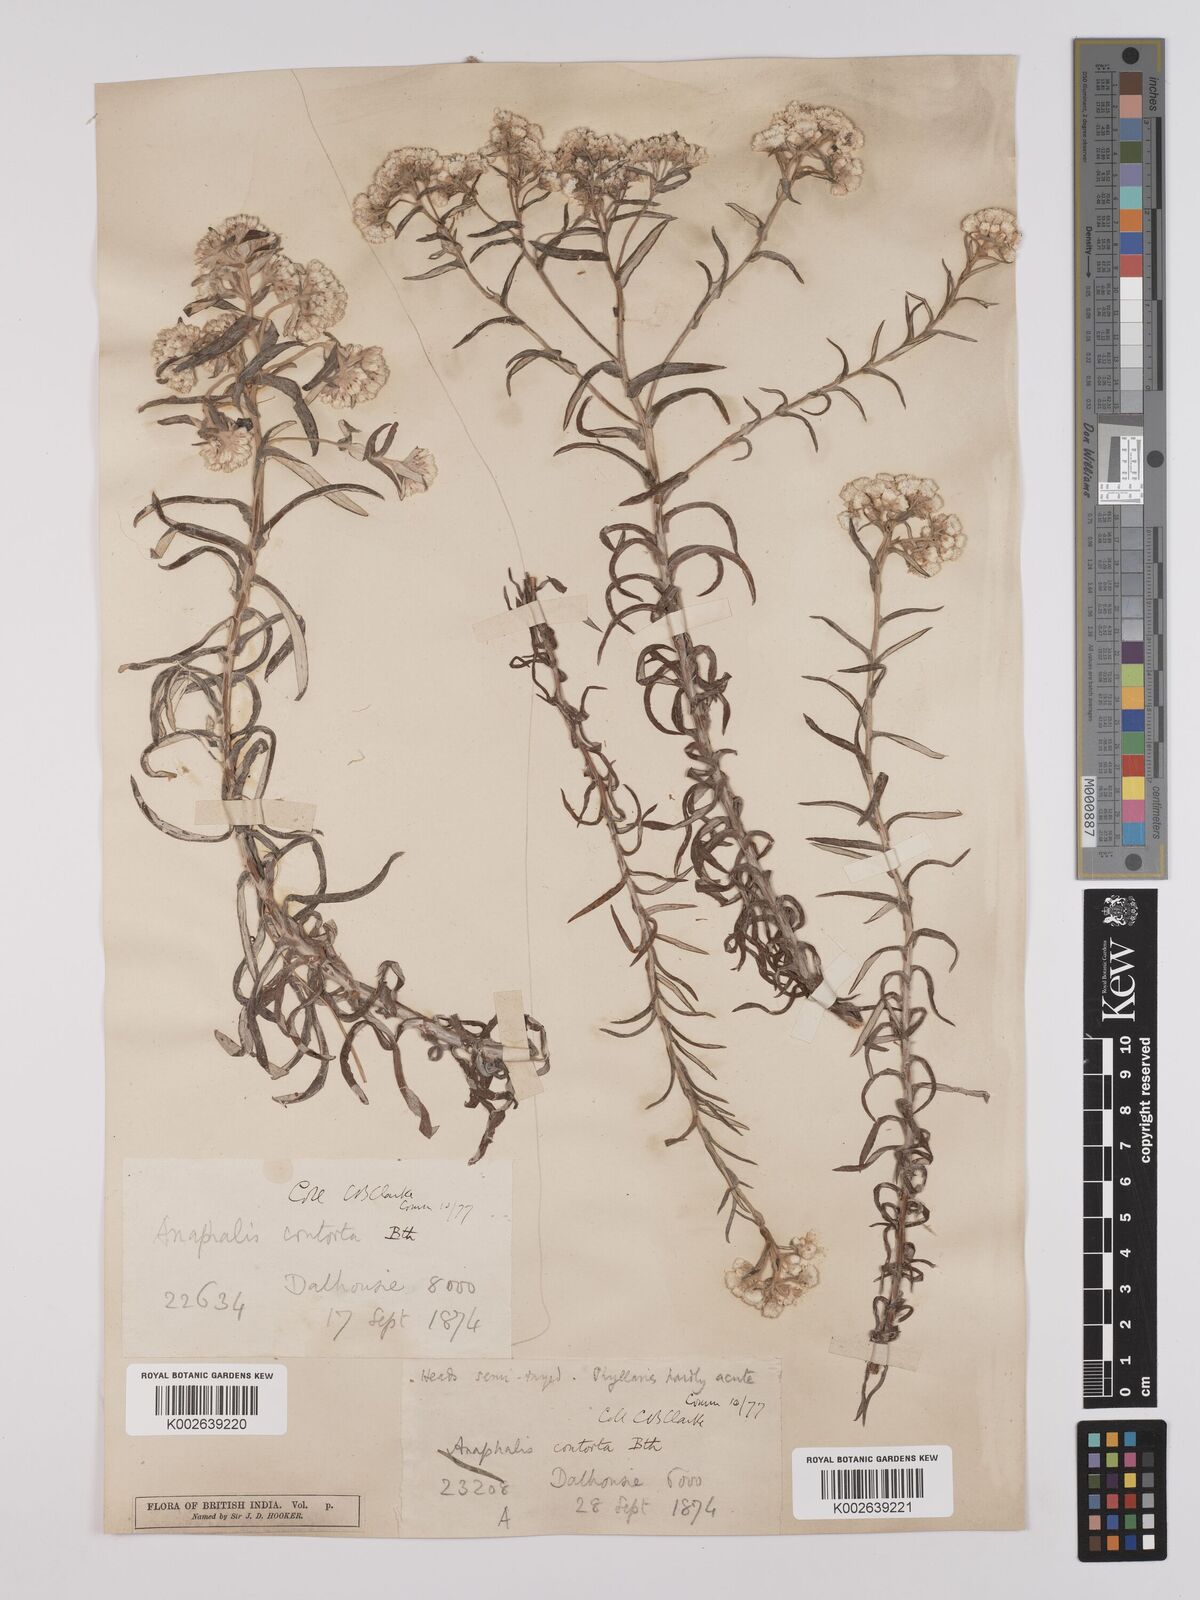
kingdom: Plantae
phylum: Tracheophyta
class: Magnoliopsida
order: Asterales
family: Asteraceae
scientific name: Asteraceae
